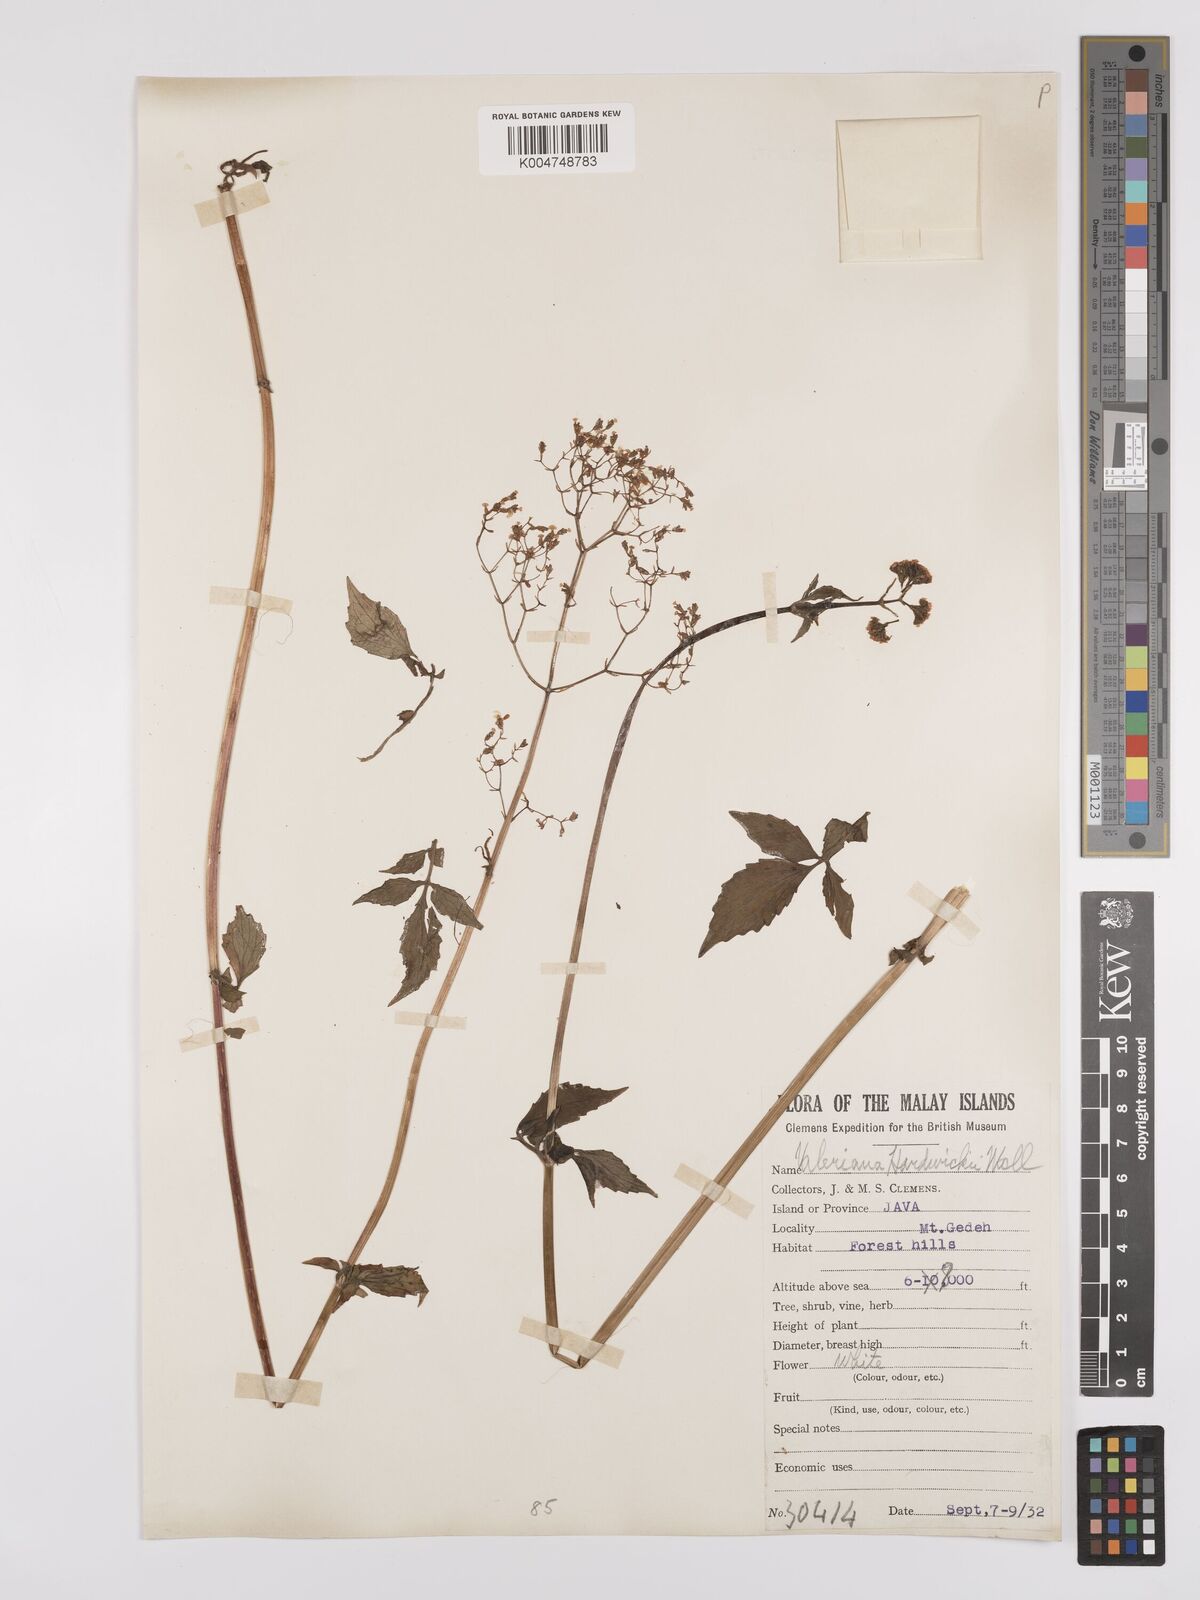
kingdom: Plantae
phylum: Tracheophyta
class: Magnoliopsida
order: Dipsacales
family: Caprifoliaceae
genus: Valeriana
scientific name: Valeriana hardwickei
